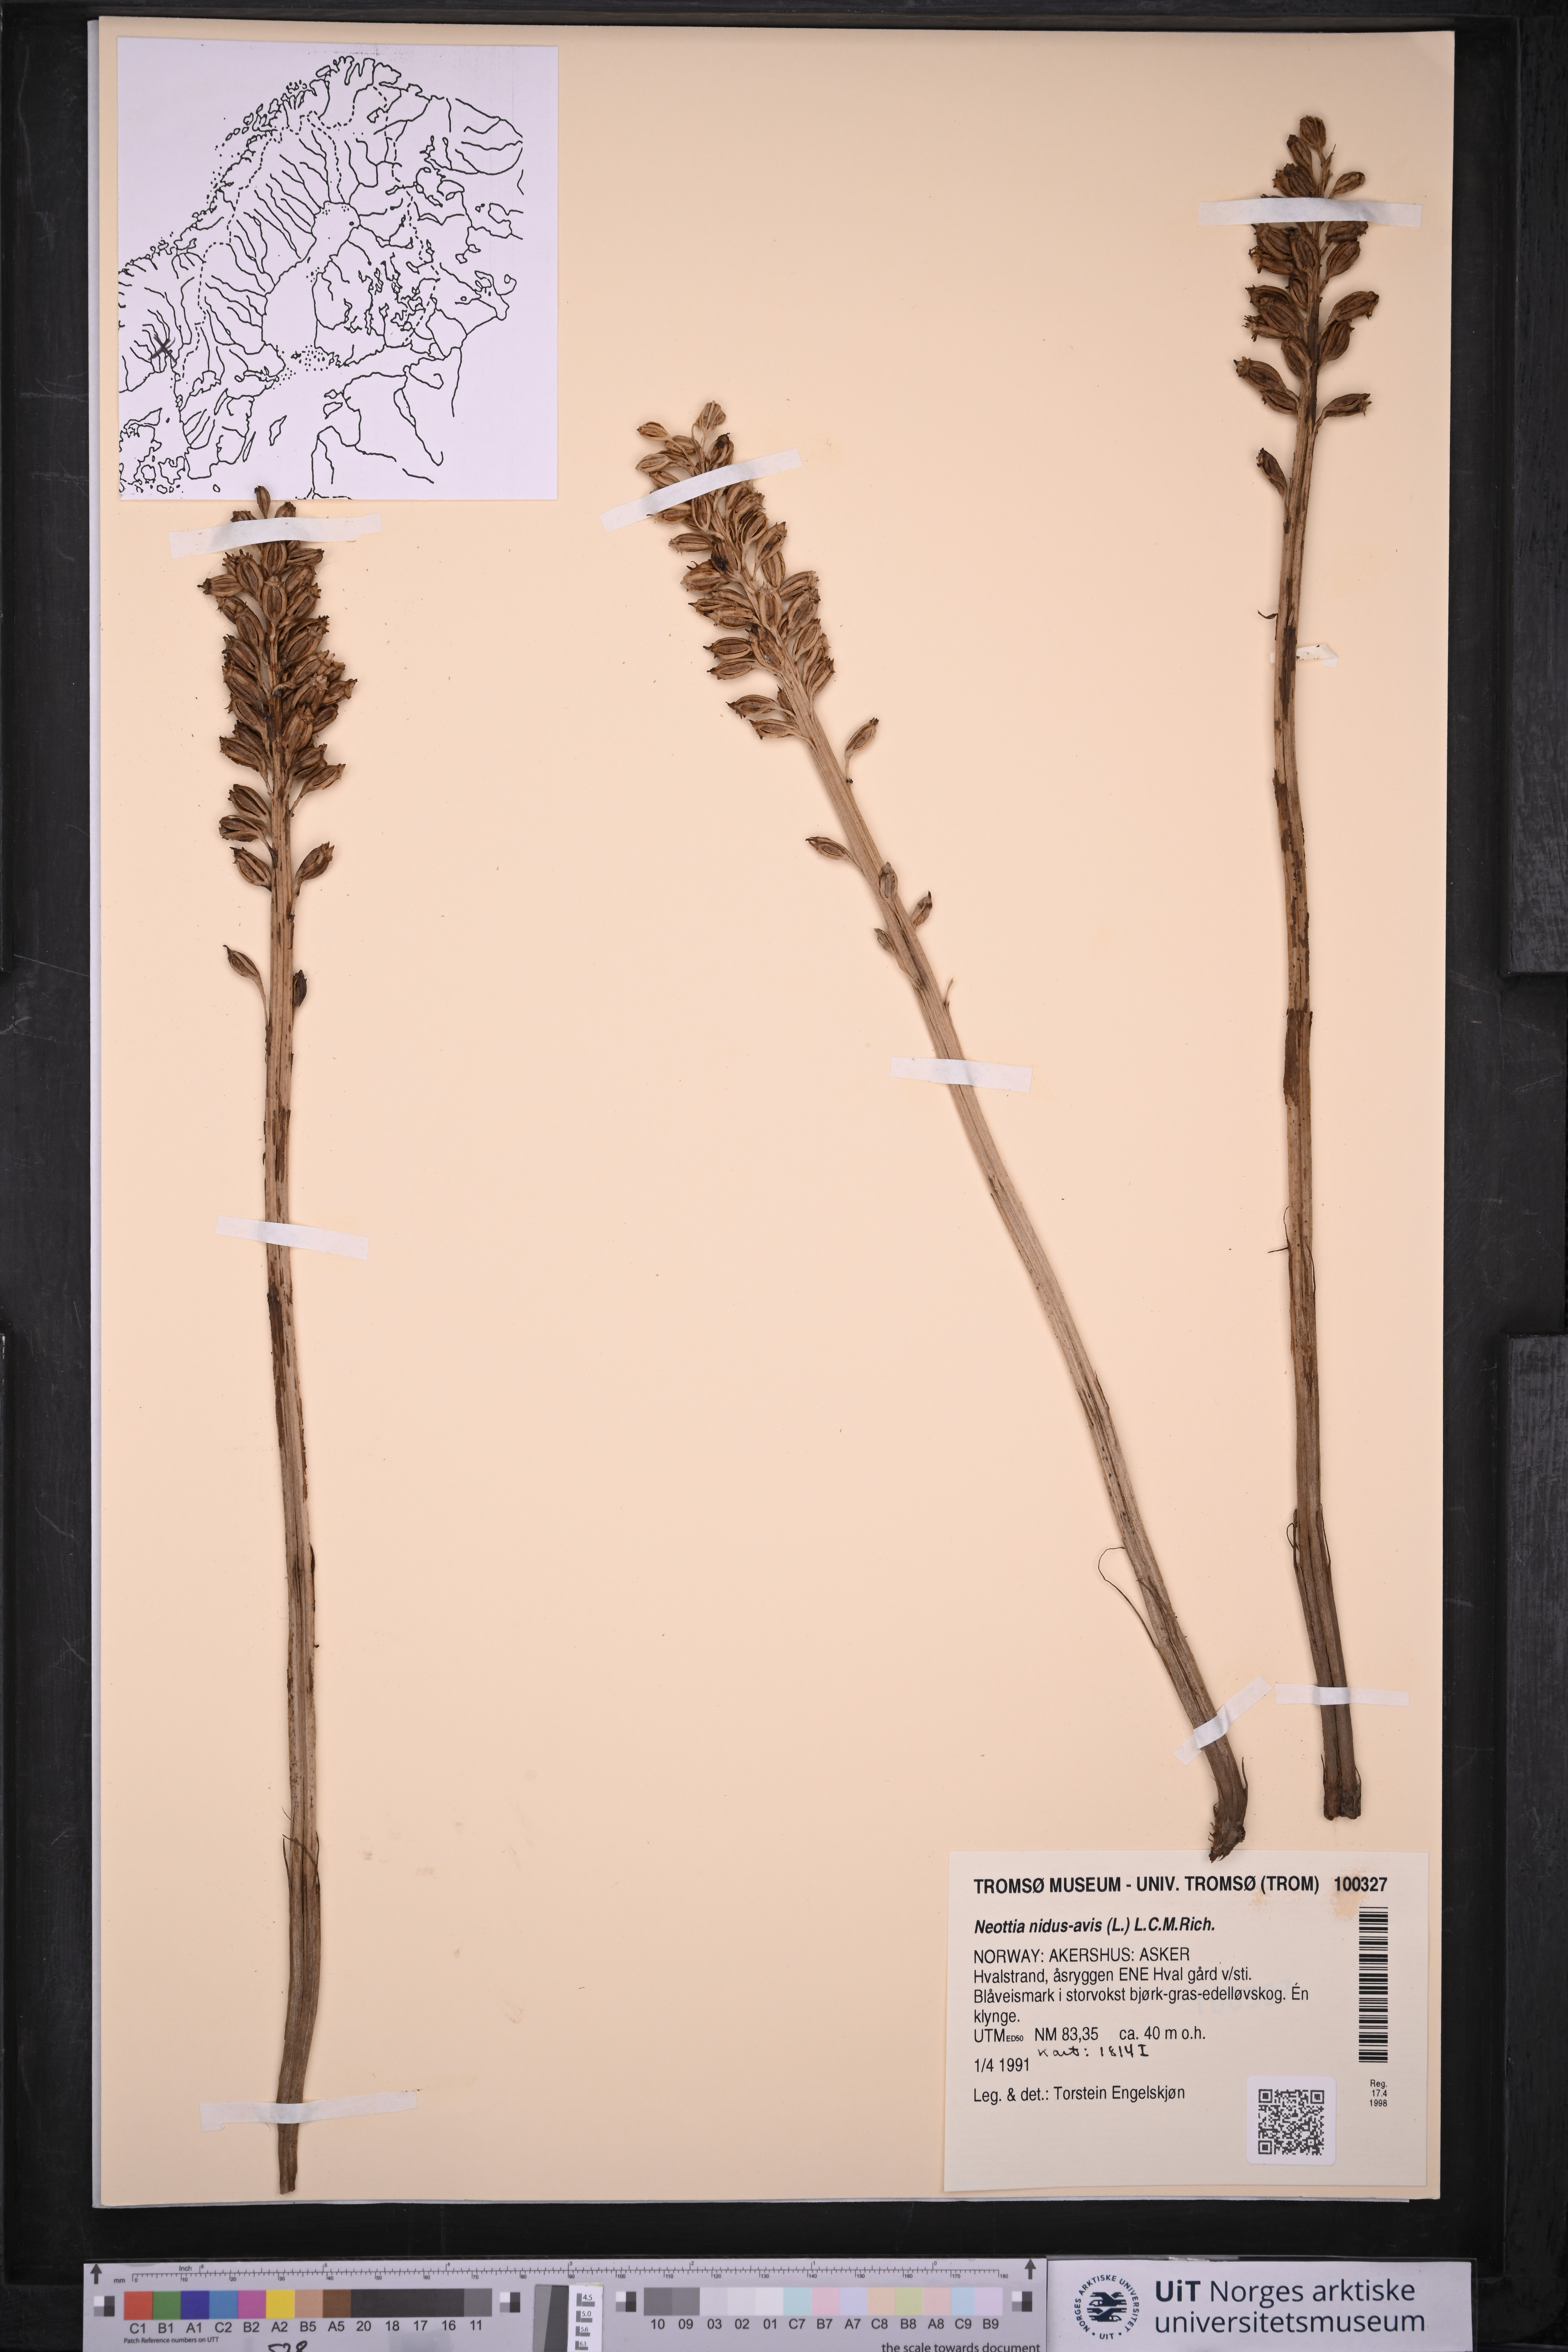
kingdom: Plantae
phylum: Tracheophyta
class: Liliopsida
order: Asparagales
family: Orchidaceae
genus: Neottia
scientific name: Neottia nidus-avis
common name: Bird's-nest orchid
